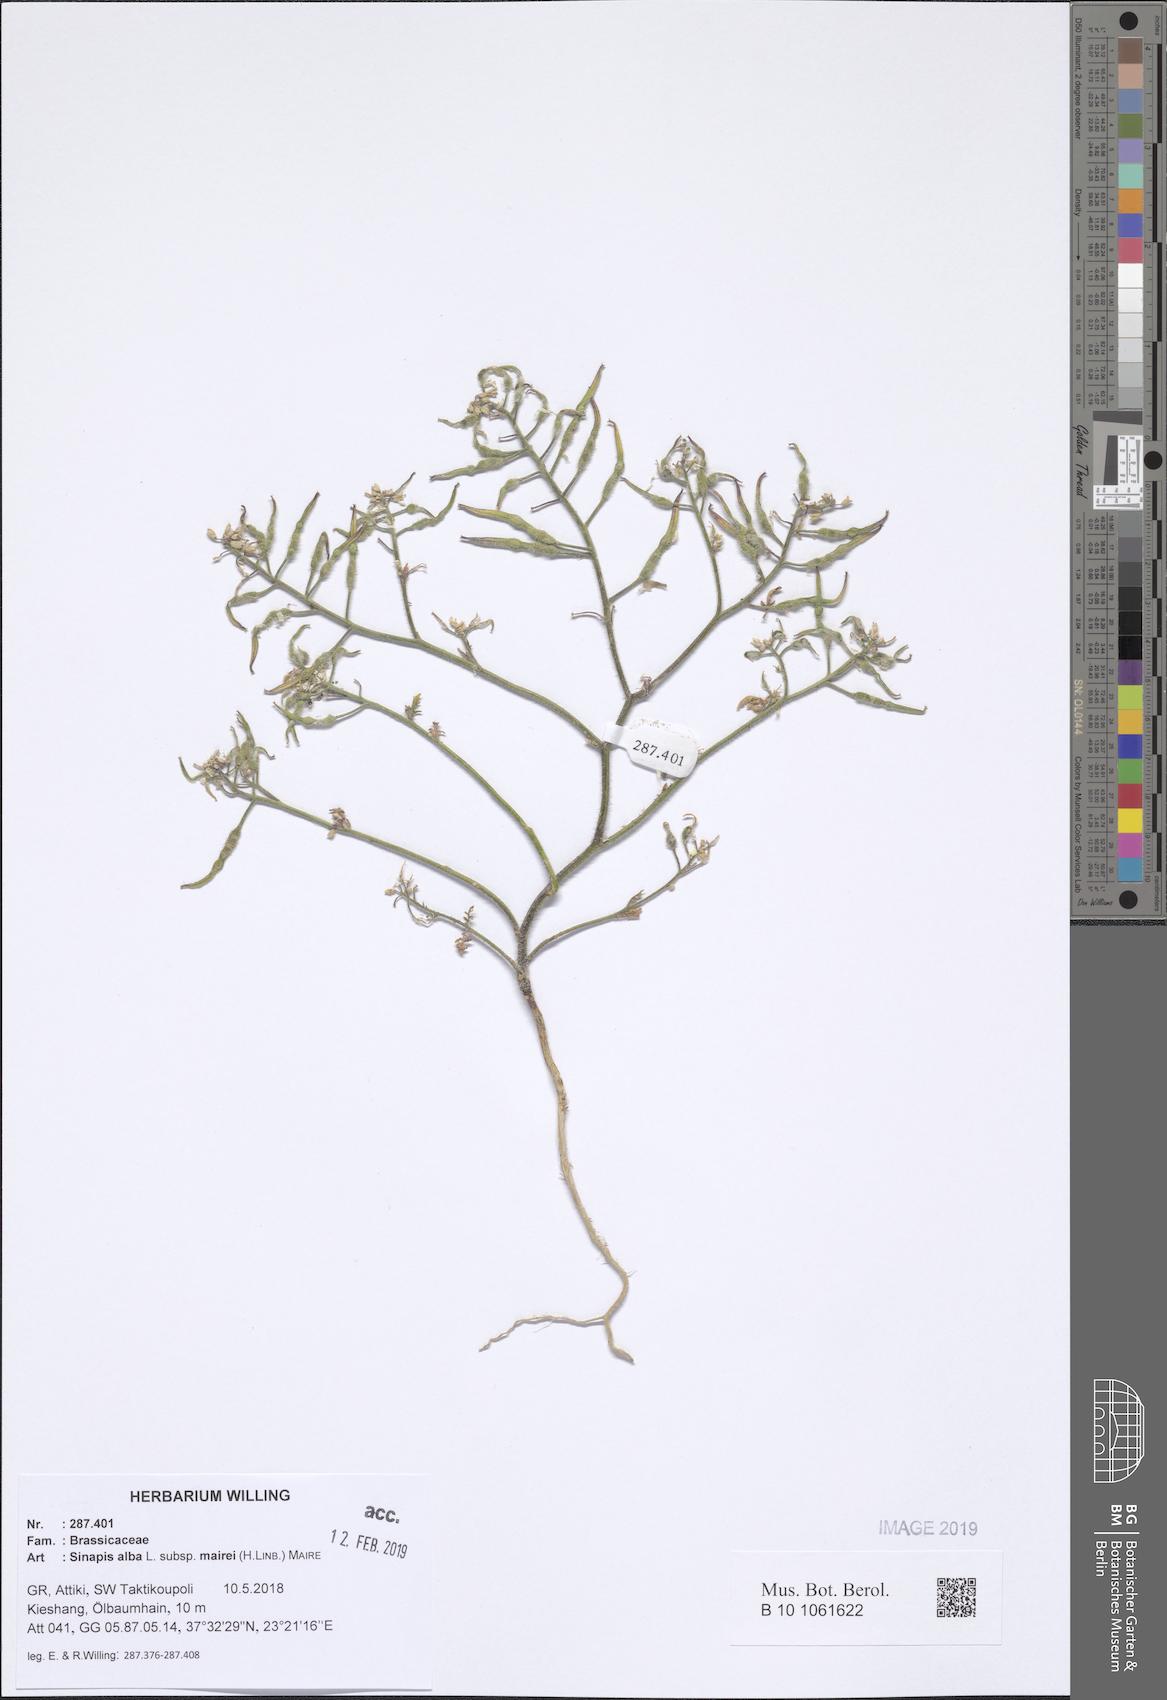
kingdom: Plantae
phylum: Tracheophyta
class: Magnoliopsida
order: Brassicales
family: Brassicaceae
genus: Sinapis
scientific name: Sinapis alba
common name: White mustard
